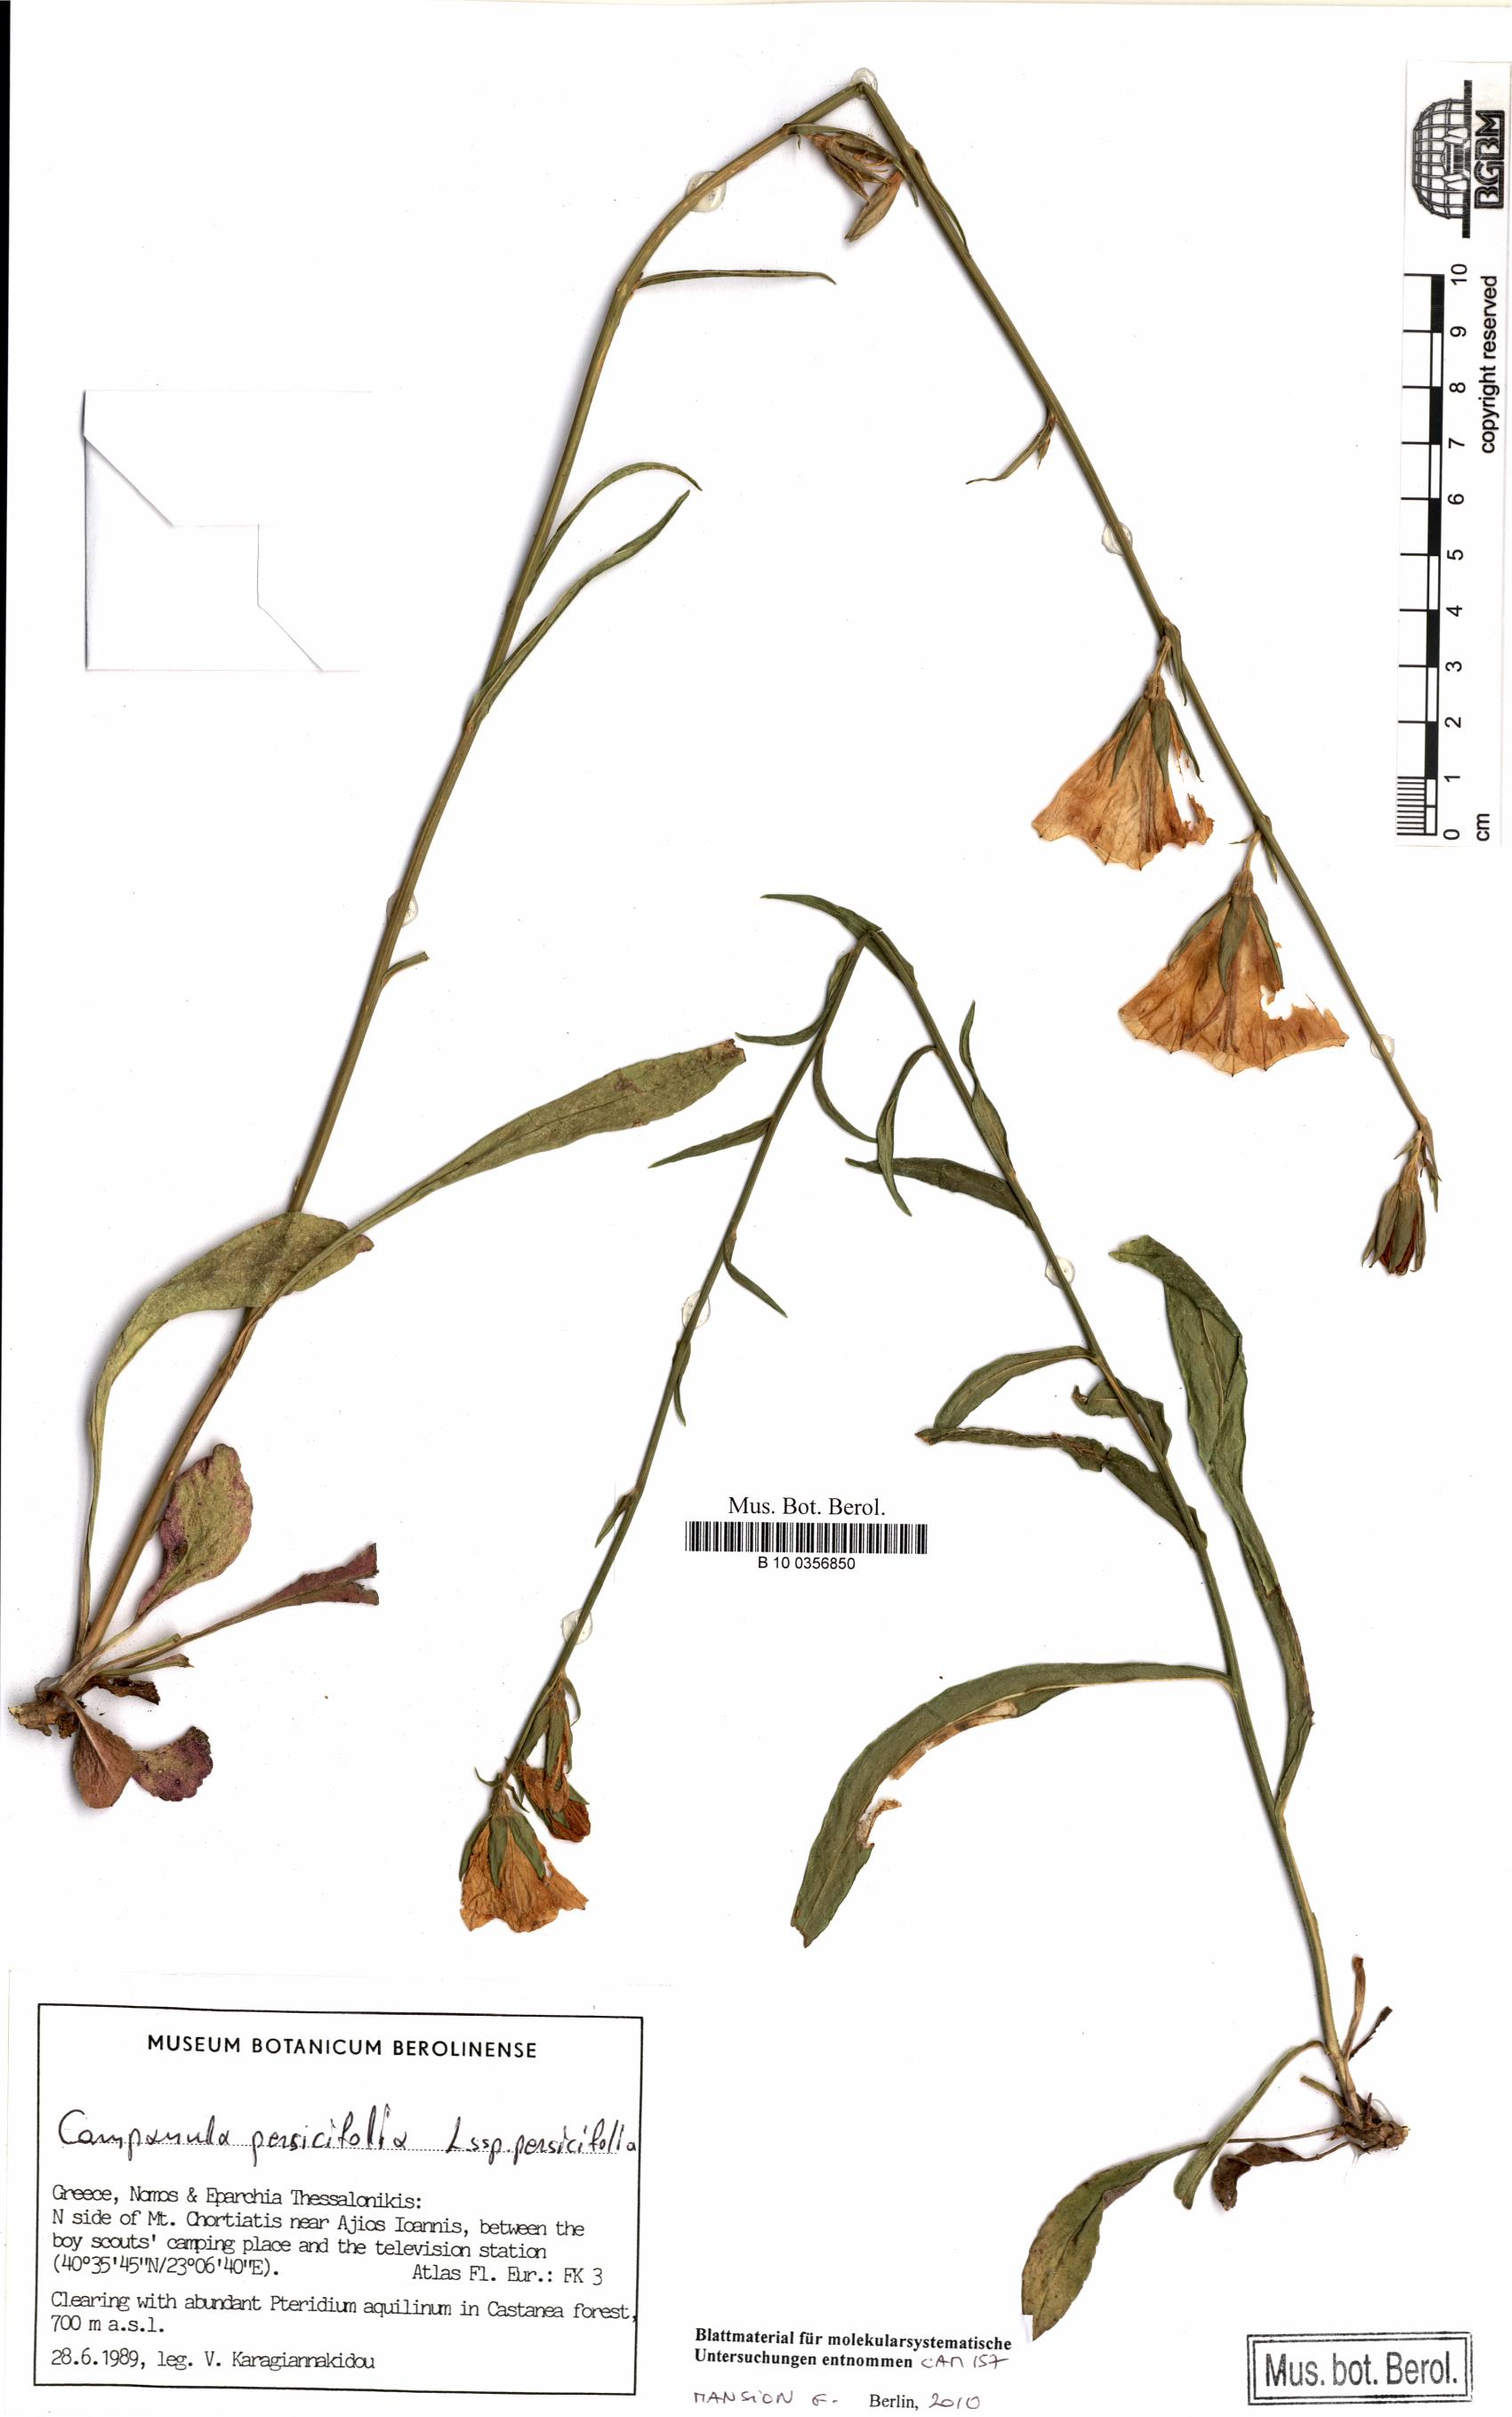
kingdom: Plantae
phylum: Tracheophyta
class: Magnoliopsida
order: Asterales
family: Campanulaceae
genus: Campanula
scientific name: Campanula persicifolia
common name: Peach-leaved bellflower
